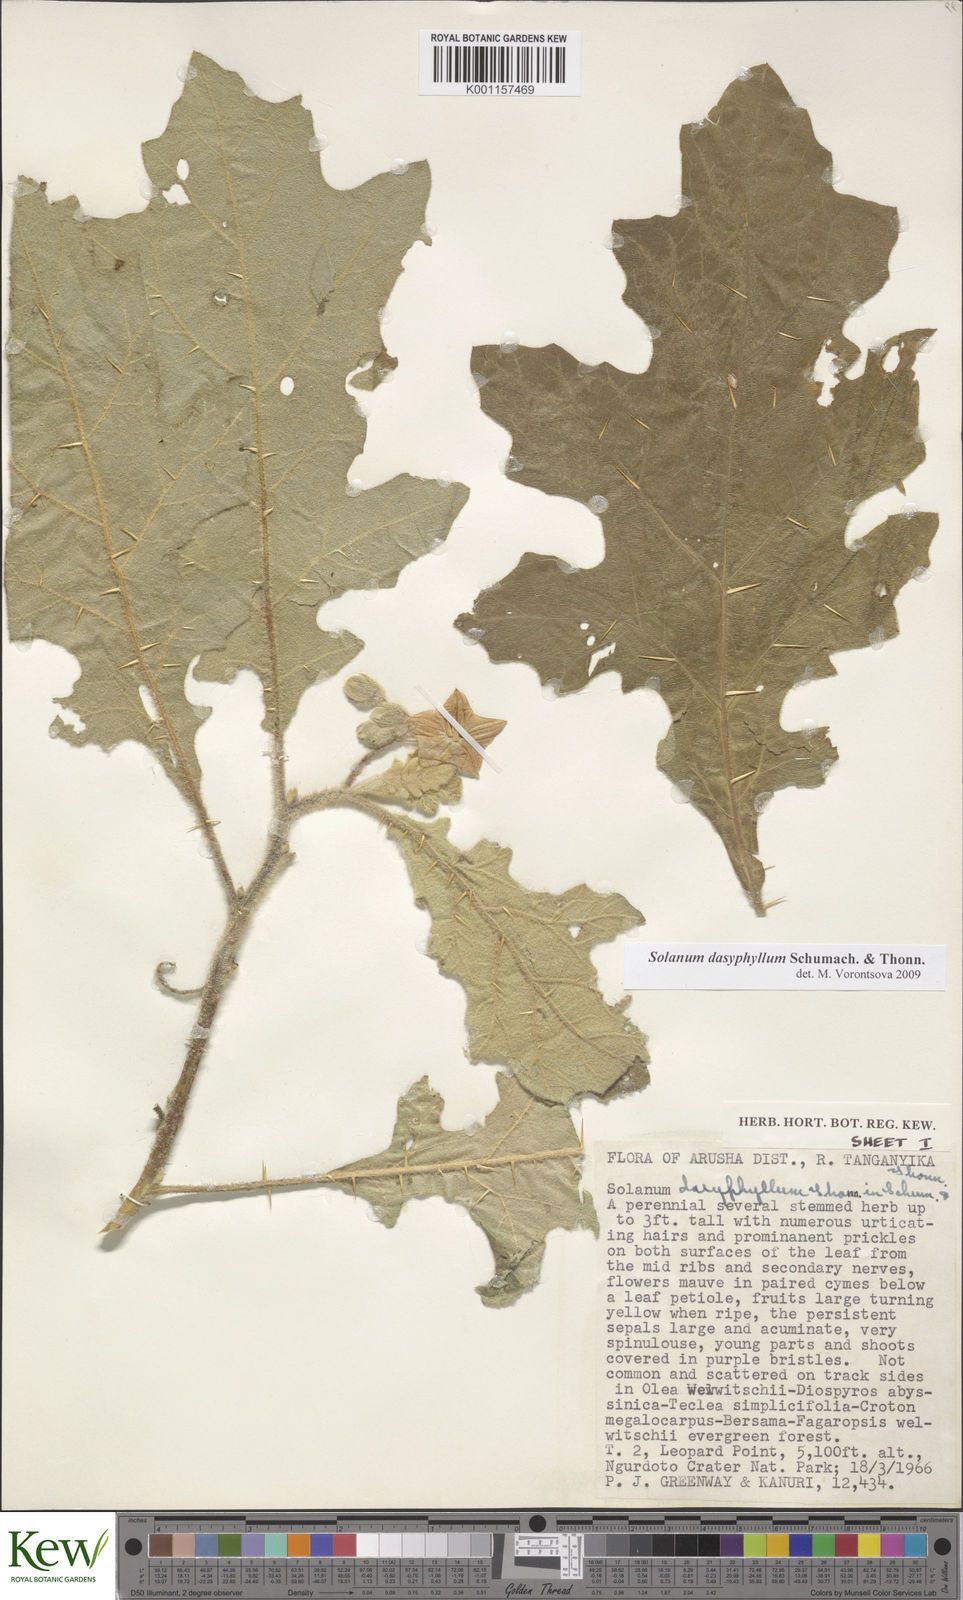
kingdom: Plantae
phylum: Tracheophyta
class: Magnoliopsida
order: Solanales
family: Solanaceae
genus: Solanum
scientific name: Solanum dasyphyllum
